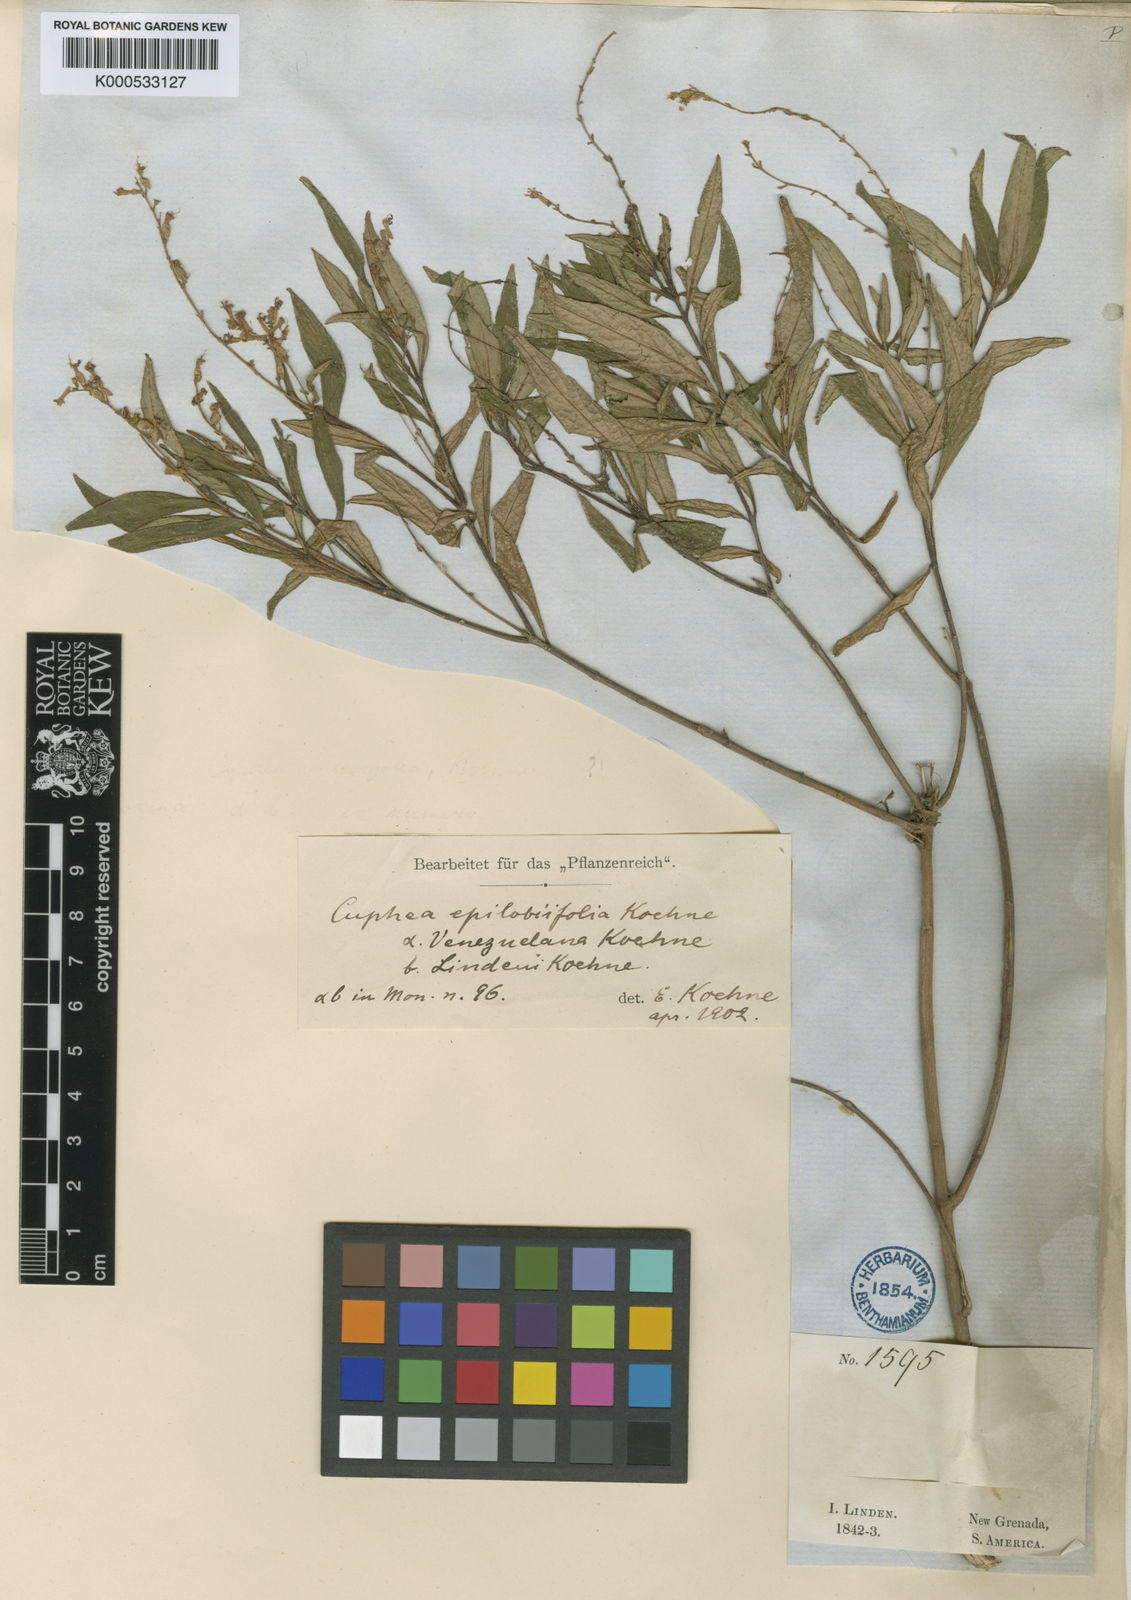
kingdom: Plantae
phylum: Tracheophyta
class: Magnoliopsida
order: Myrtales
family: Lythraceae
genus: Cuphea
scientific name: Cuphea epilobiifolia
